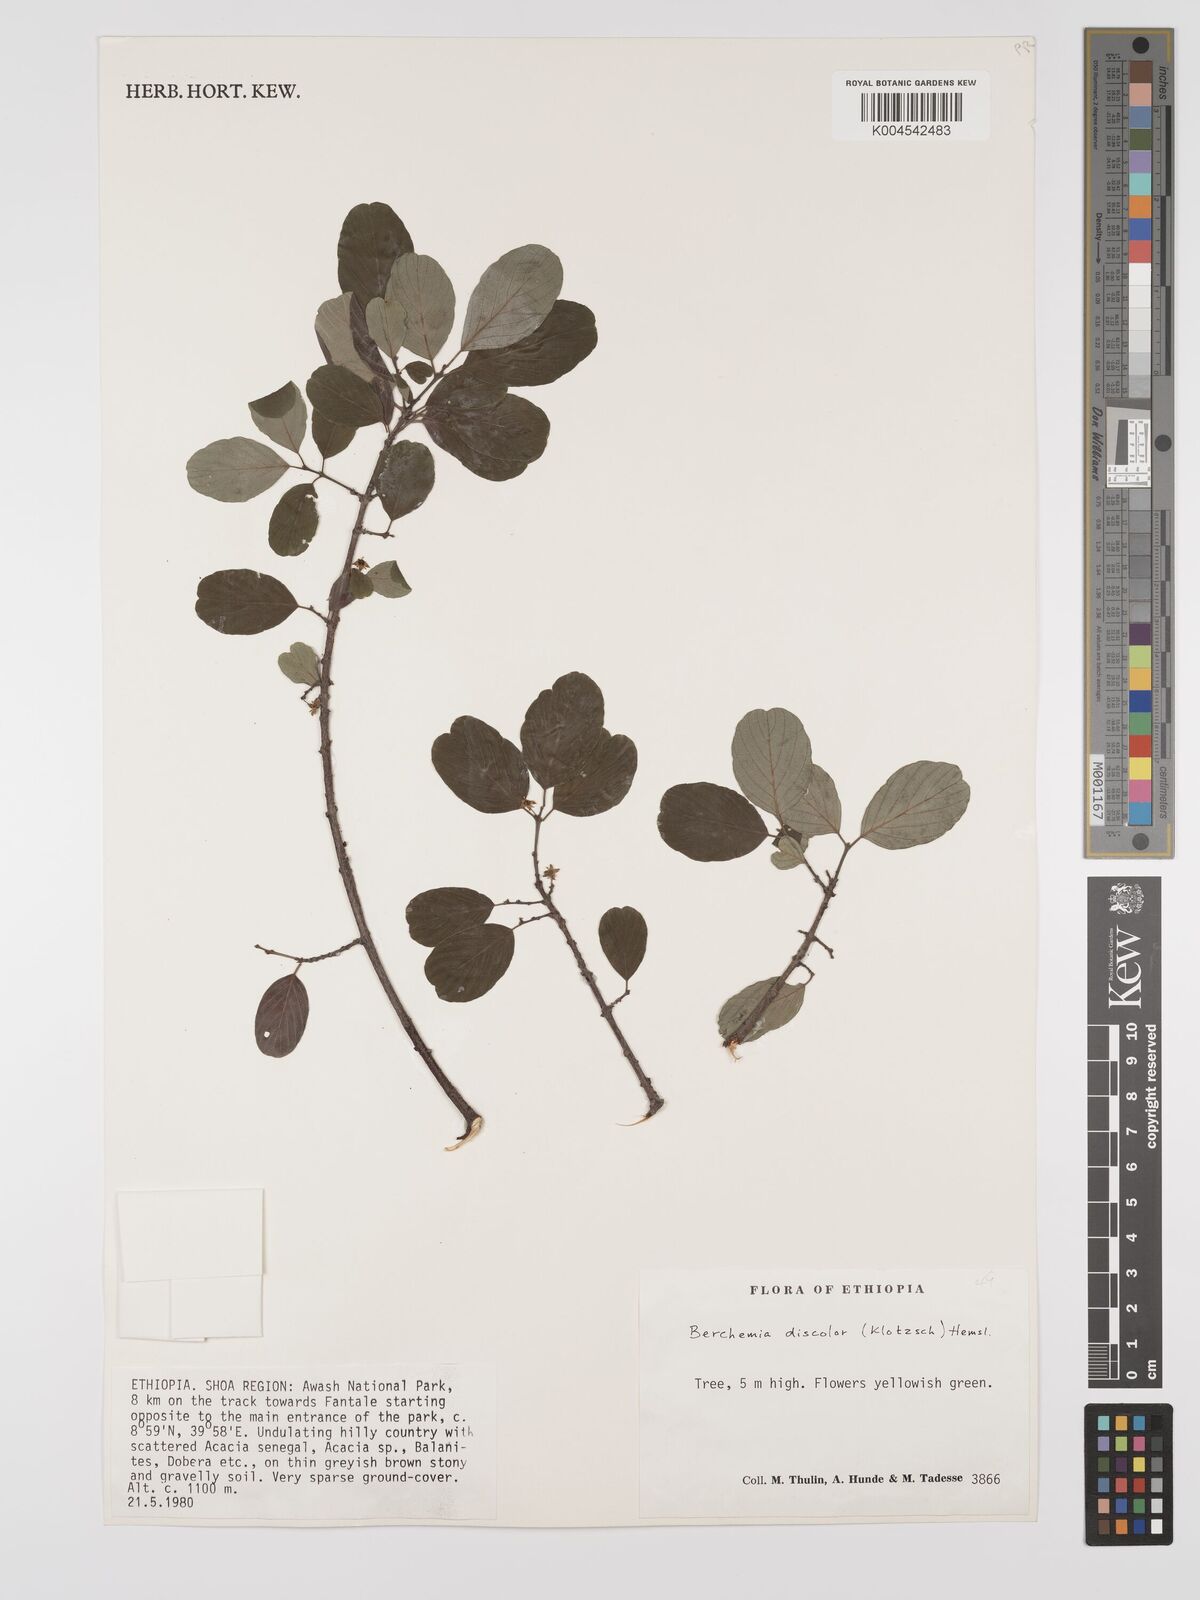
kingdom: Plantae
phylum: Tracheophyta
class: Magnoliopsida
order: Rosales
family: Rhamnaceae
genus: Phyllogeiton
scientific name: Phyllogeiton discolor
